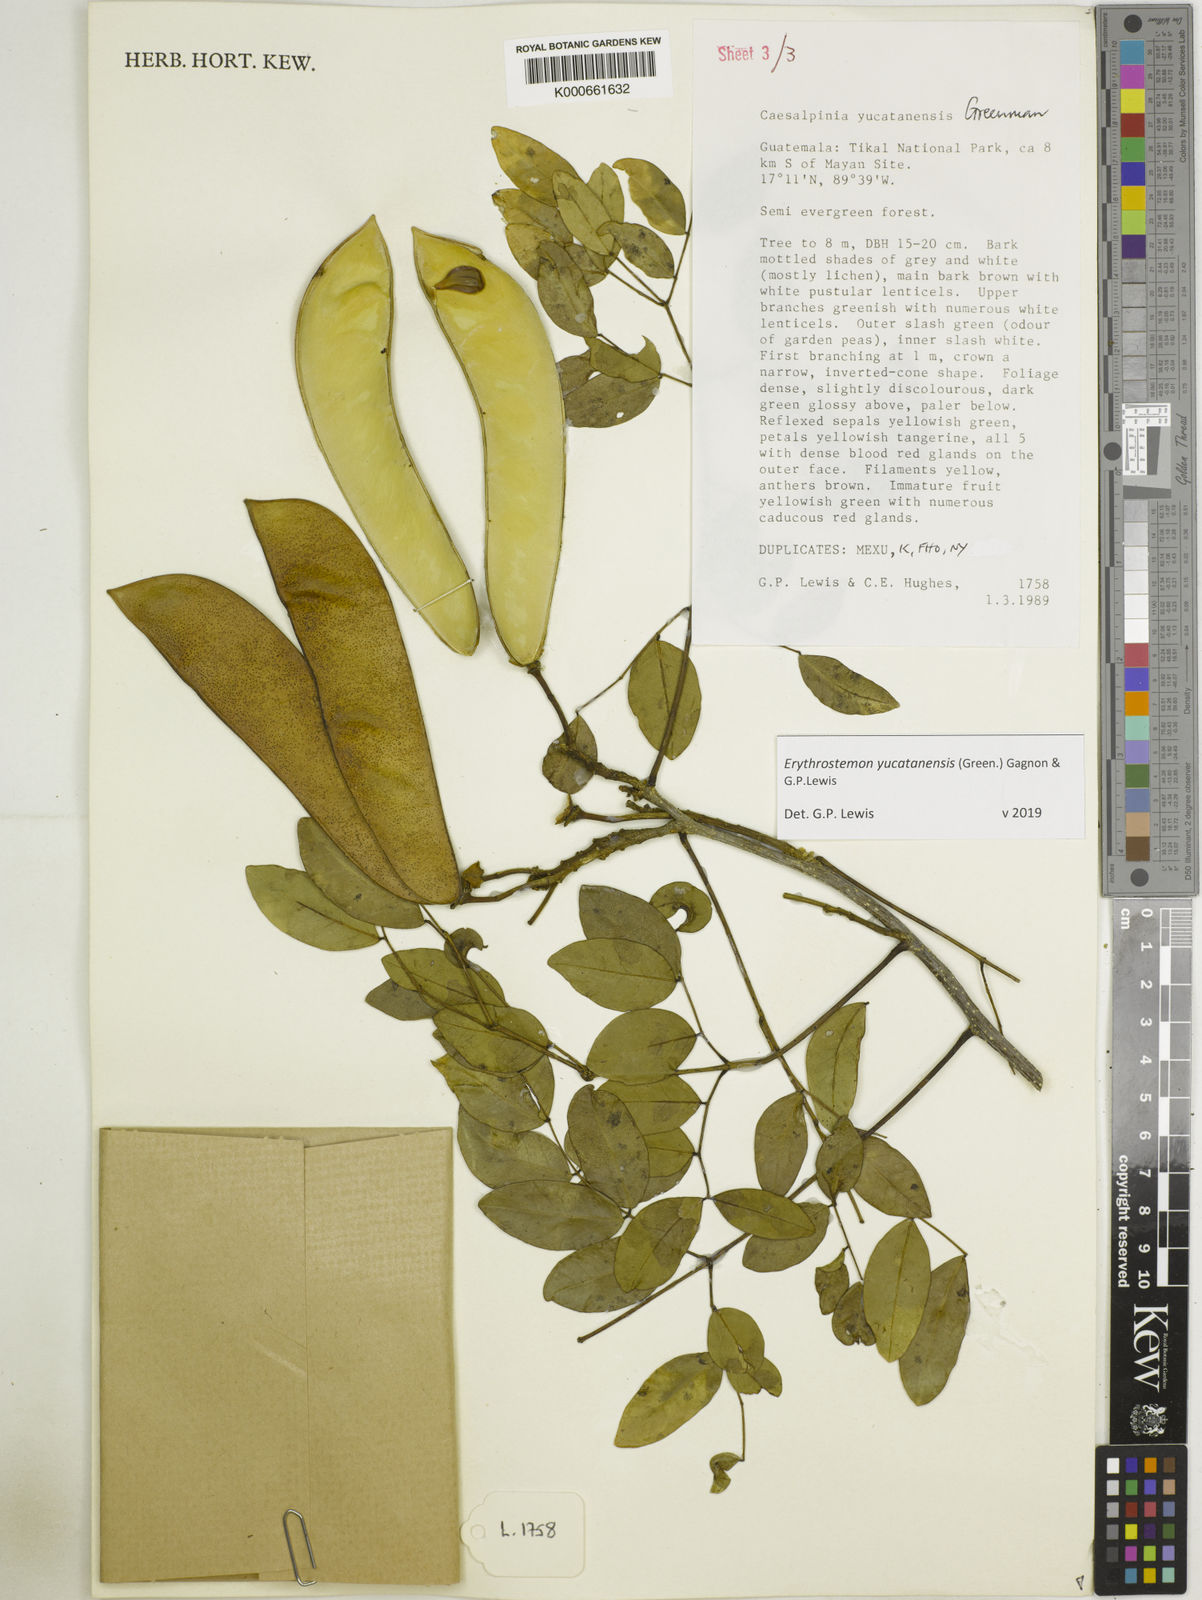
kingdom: Plantae
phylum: Tracheophyta
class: Magnoliopsida
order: Fabales
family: Fabaceae
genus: Caesalpinia
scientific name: Caesalpinia
